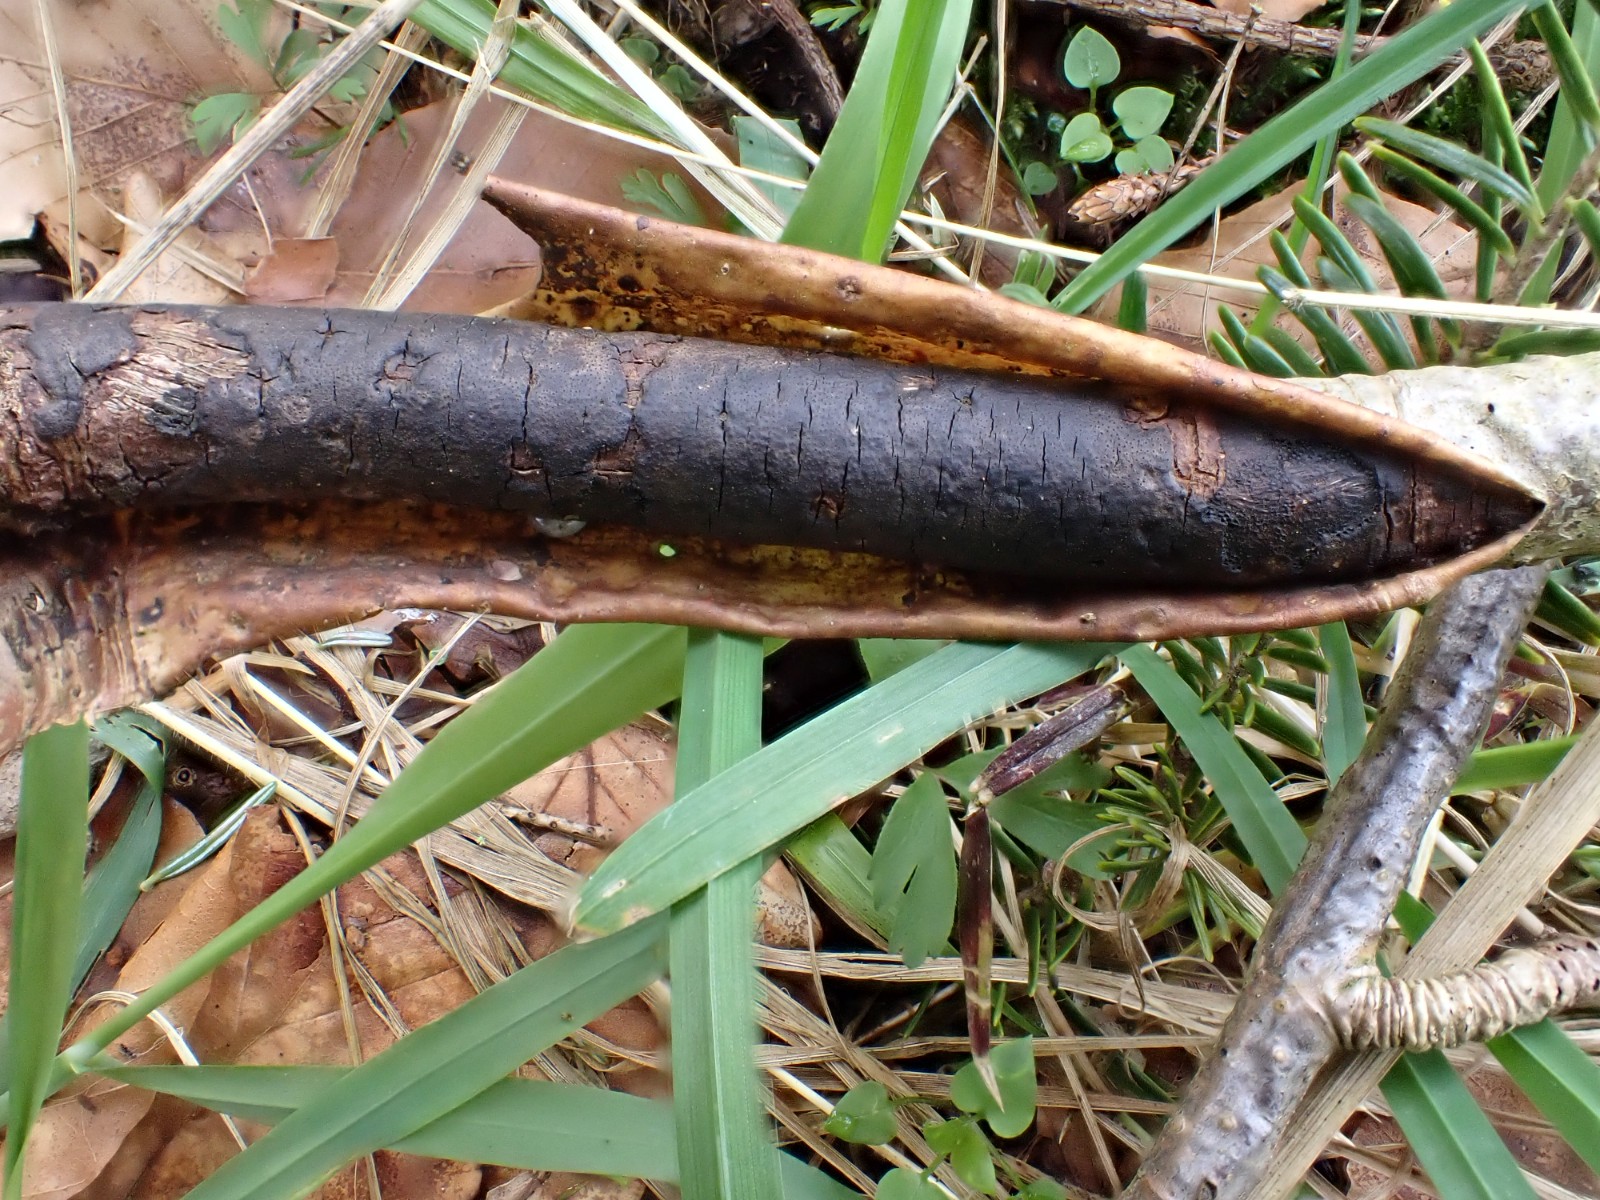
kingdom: Fungi
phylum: Ascomycota
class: Sordariomycetes
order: Xylariales
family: Diatrypaceae
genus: Diatrype
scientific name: Diatrype decorticata
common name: barksprænger-kulskorpe
